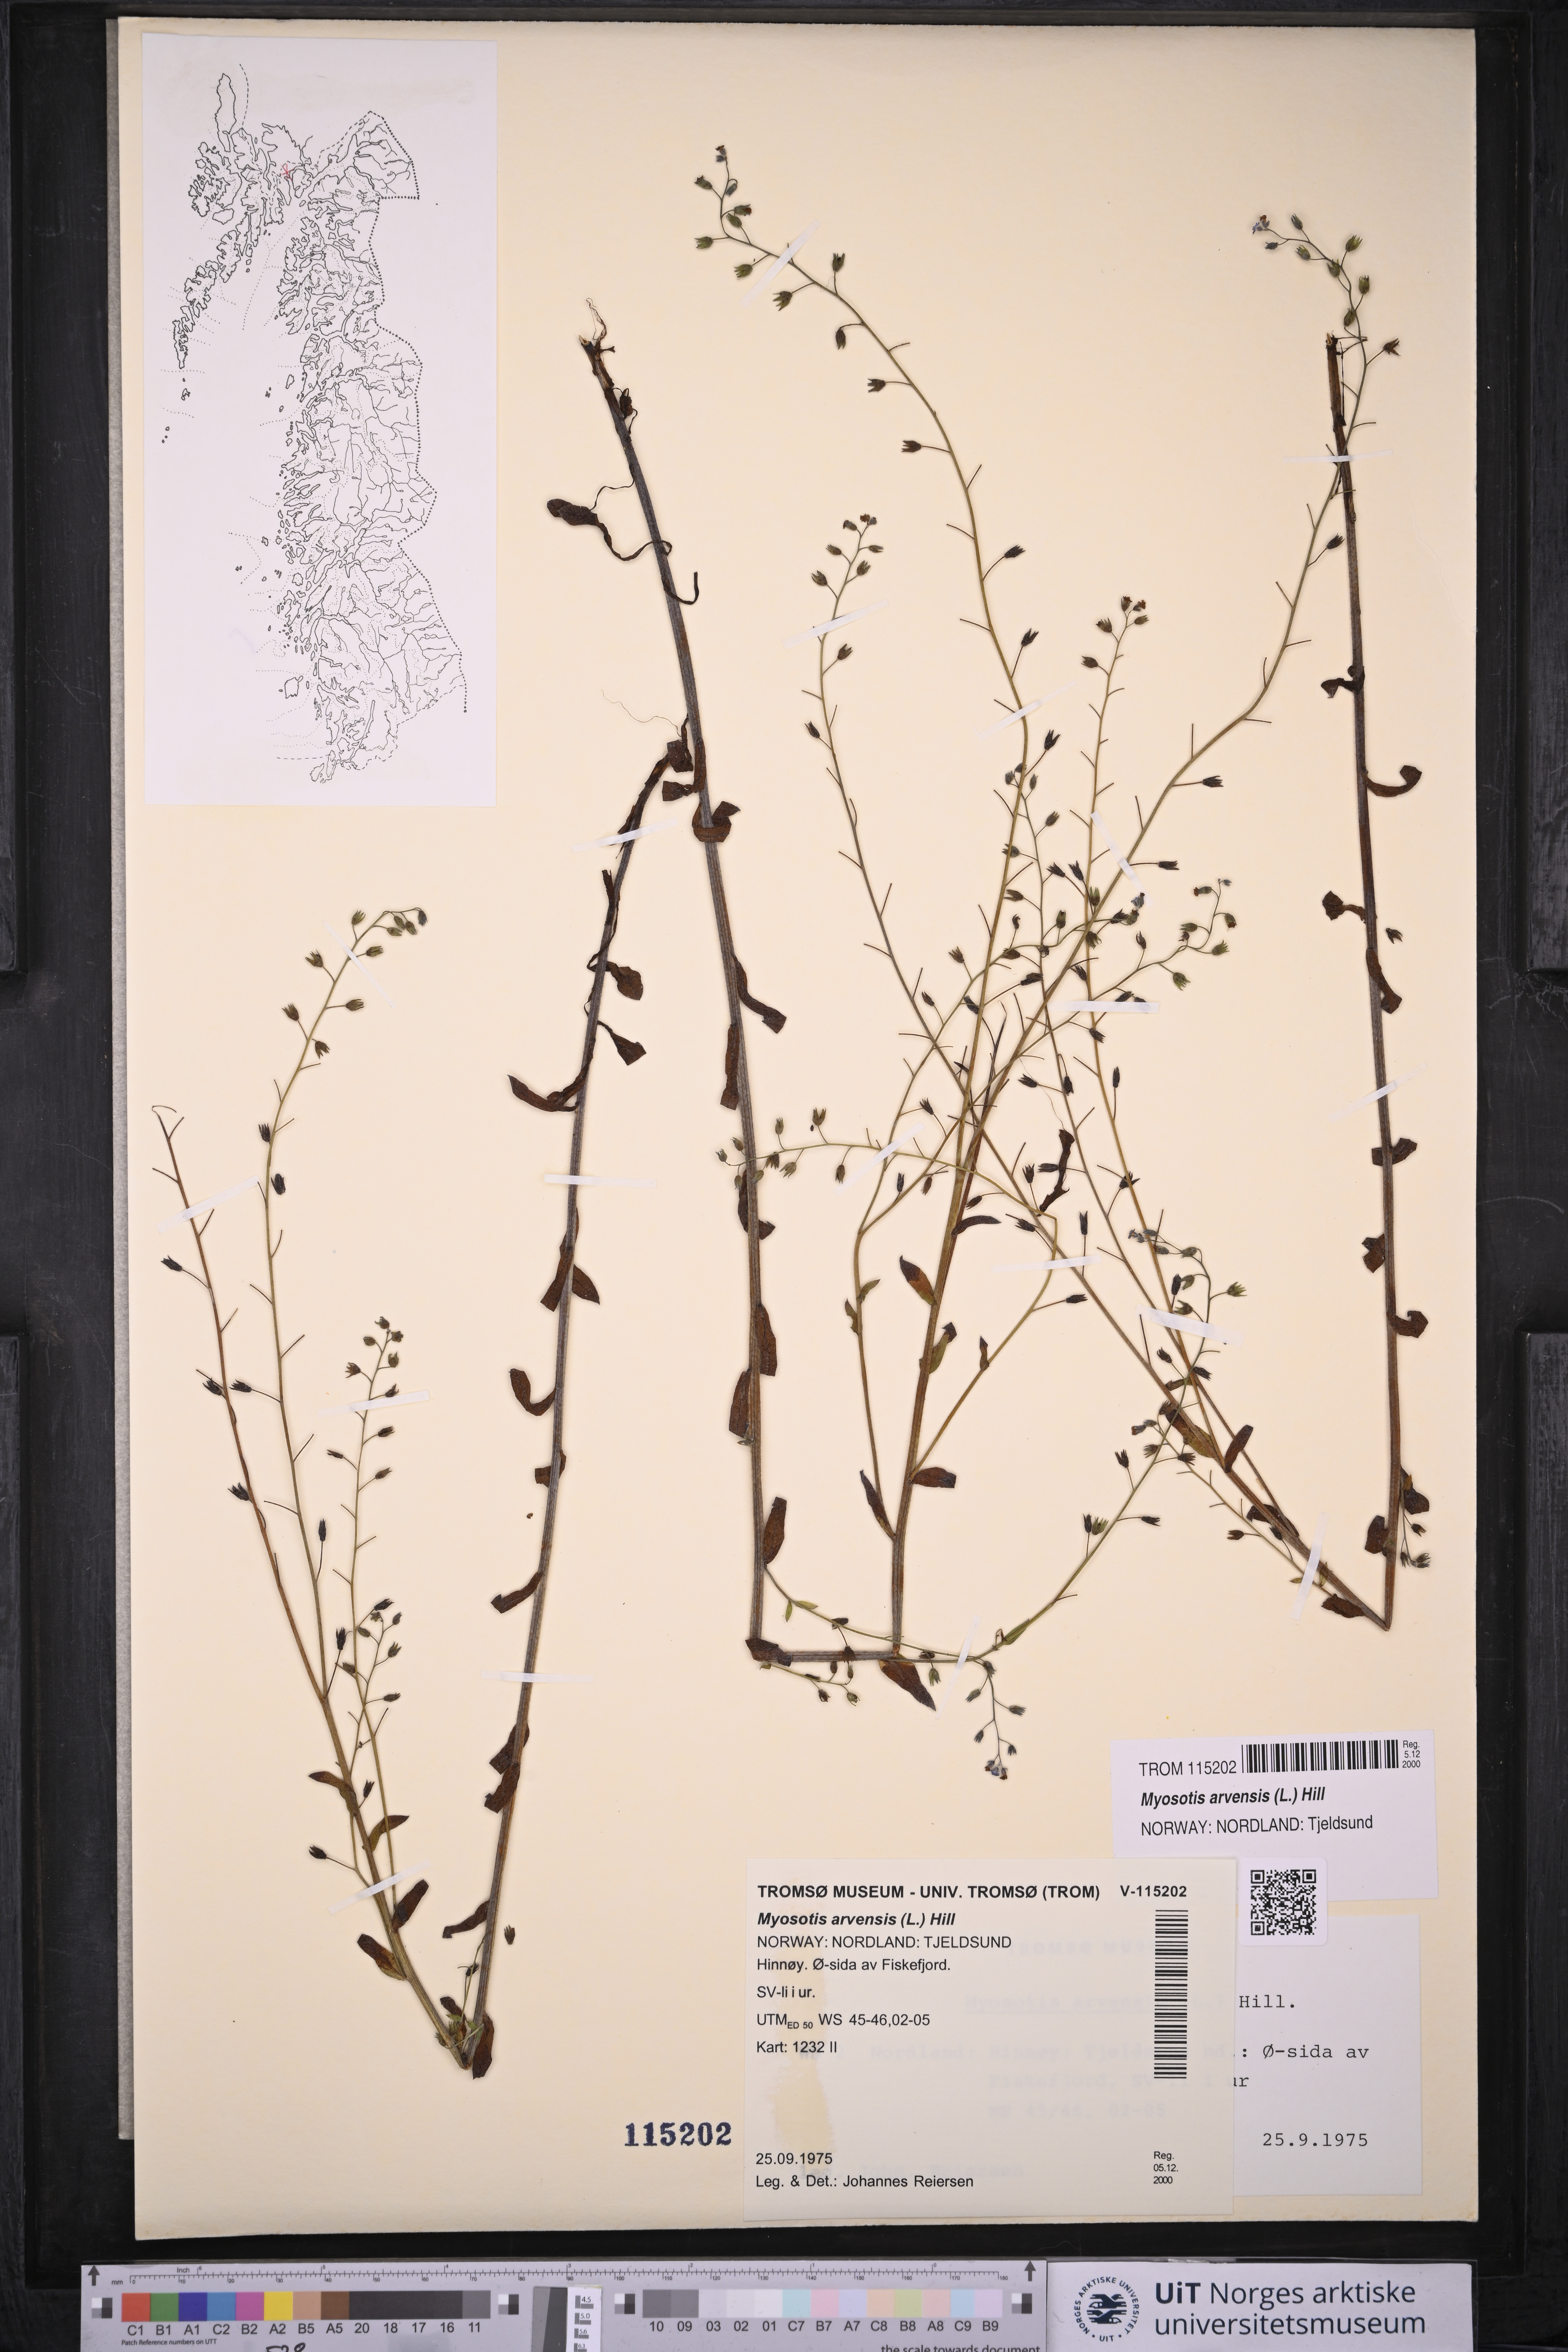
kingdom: Plantae
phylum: Tracheophyta
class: Magnoliopsida
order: Boraginales
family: Boraginaceae
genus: Myosotis
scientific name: Myosotis arvensis
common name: Field forget-me-not
